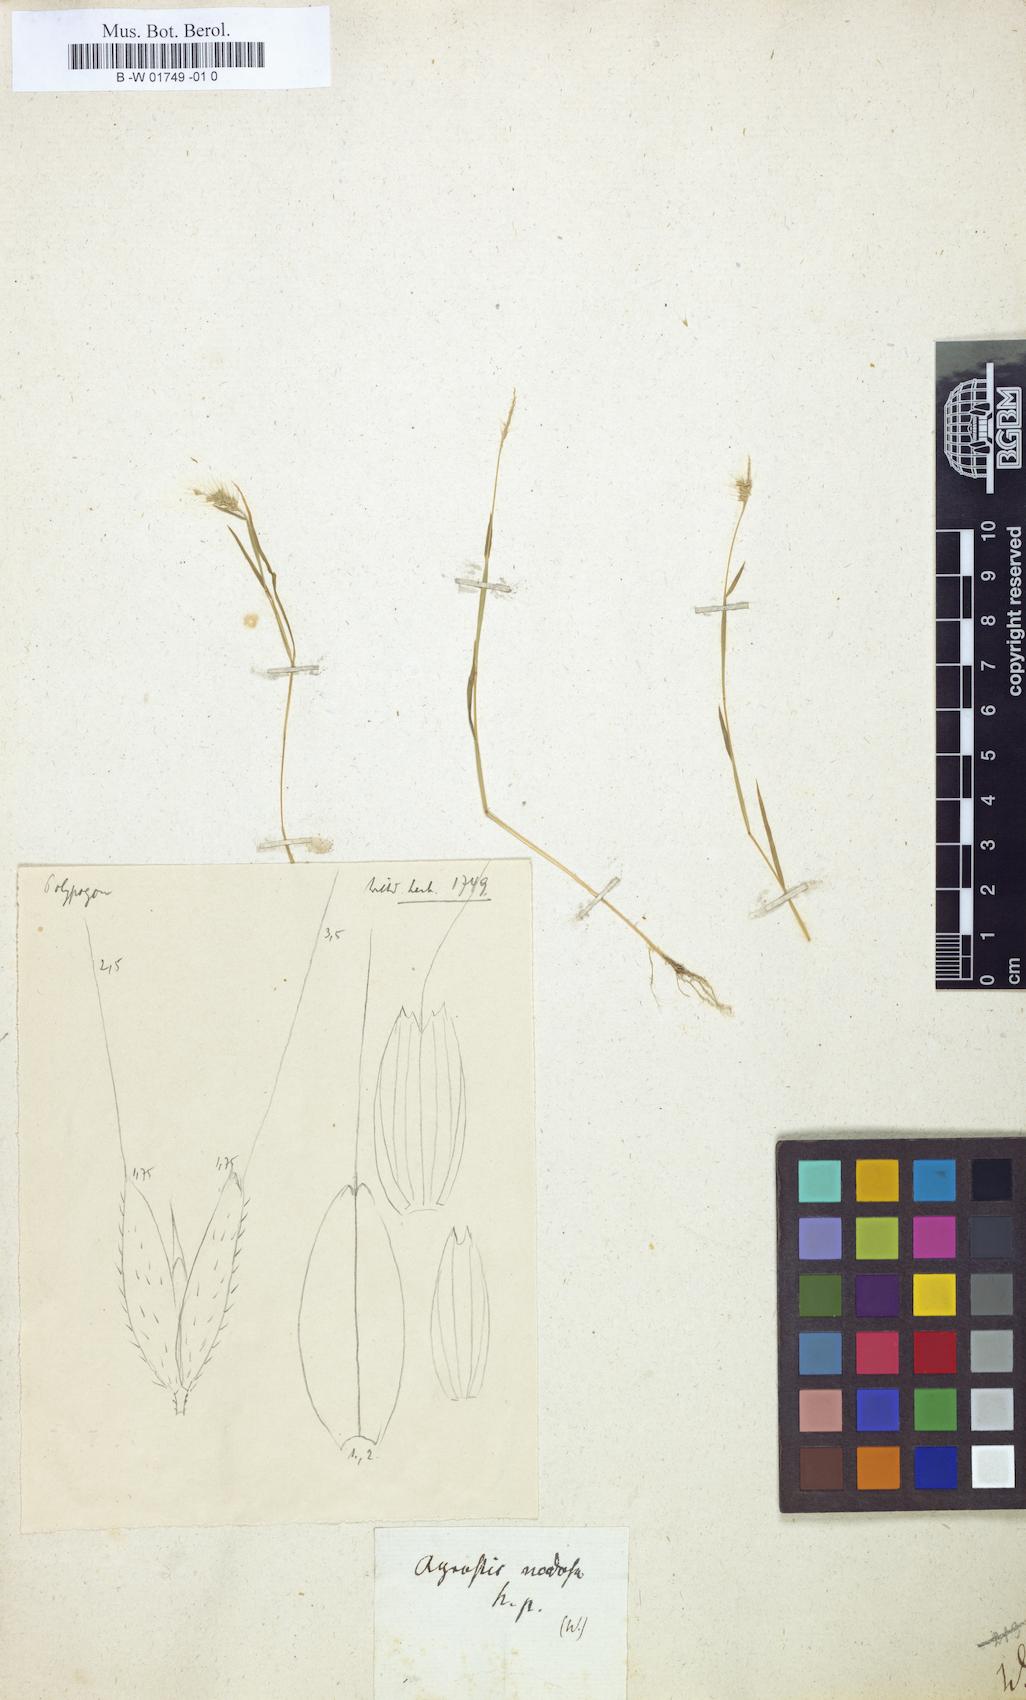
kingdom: Plantae
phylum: Tracheophyta
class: Liliopsida
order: Poales
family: Poaceae
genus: Agrostis
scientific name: Agrostis
